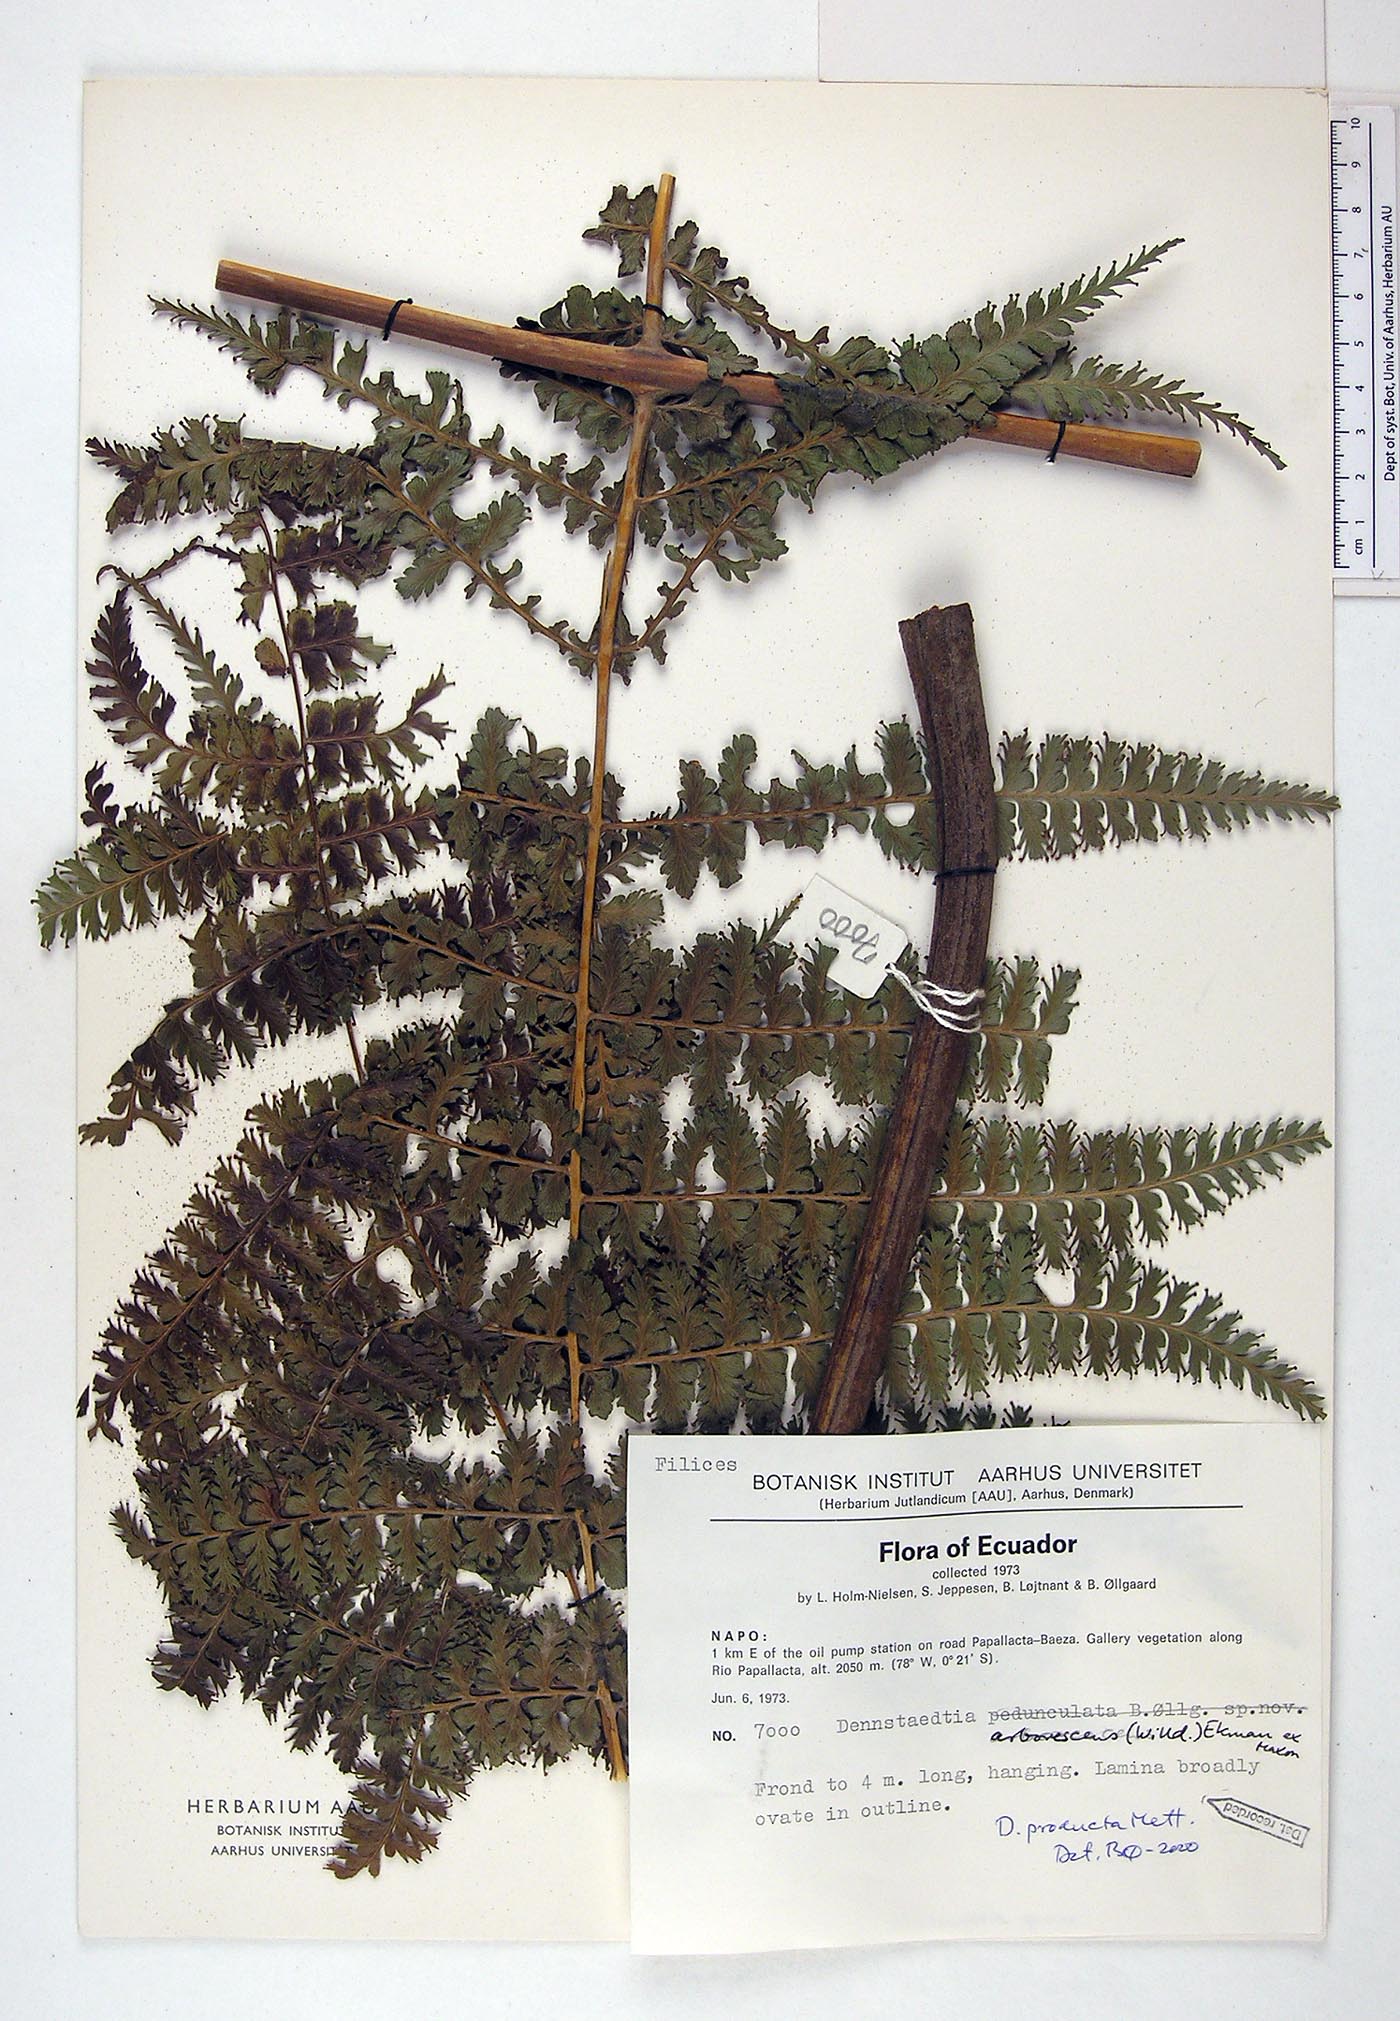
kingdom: Plantae
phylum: Tracheophyta
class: Polypodiopsida
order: Polypodiales
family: Dennstaedtiaceae
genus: Dennstaedtia
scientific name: Dennstaedtia producta
